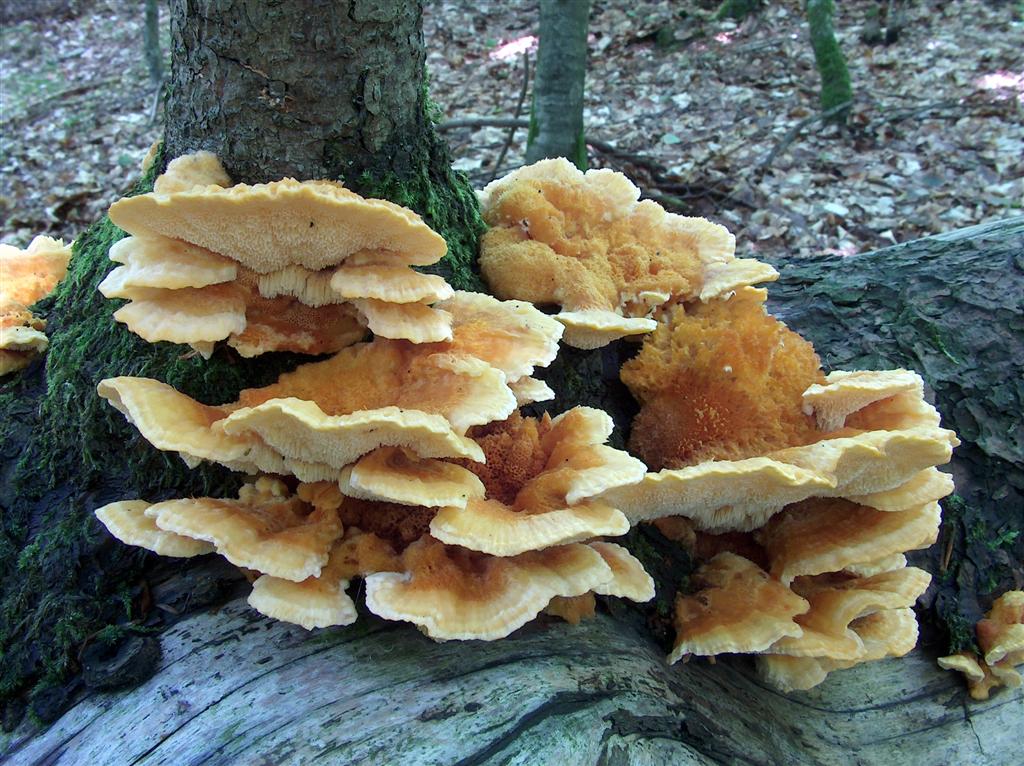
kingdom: Fungi
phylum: Basidiomycota
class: Agaricomycetes
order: Polyporales
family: Pycnoporellaceae
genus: Pycnoporellus
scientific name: Pycnoporellus fulgens
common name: flammeporesvamp
